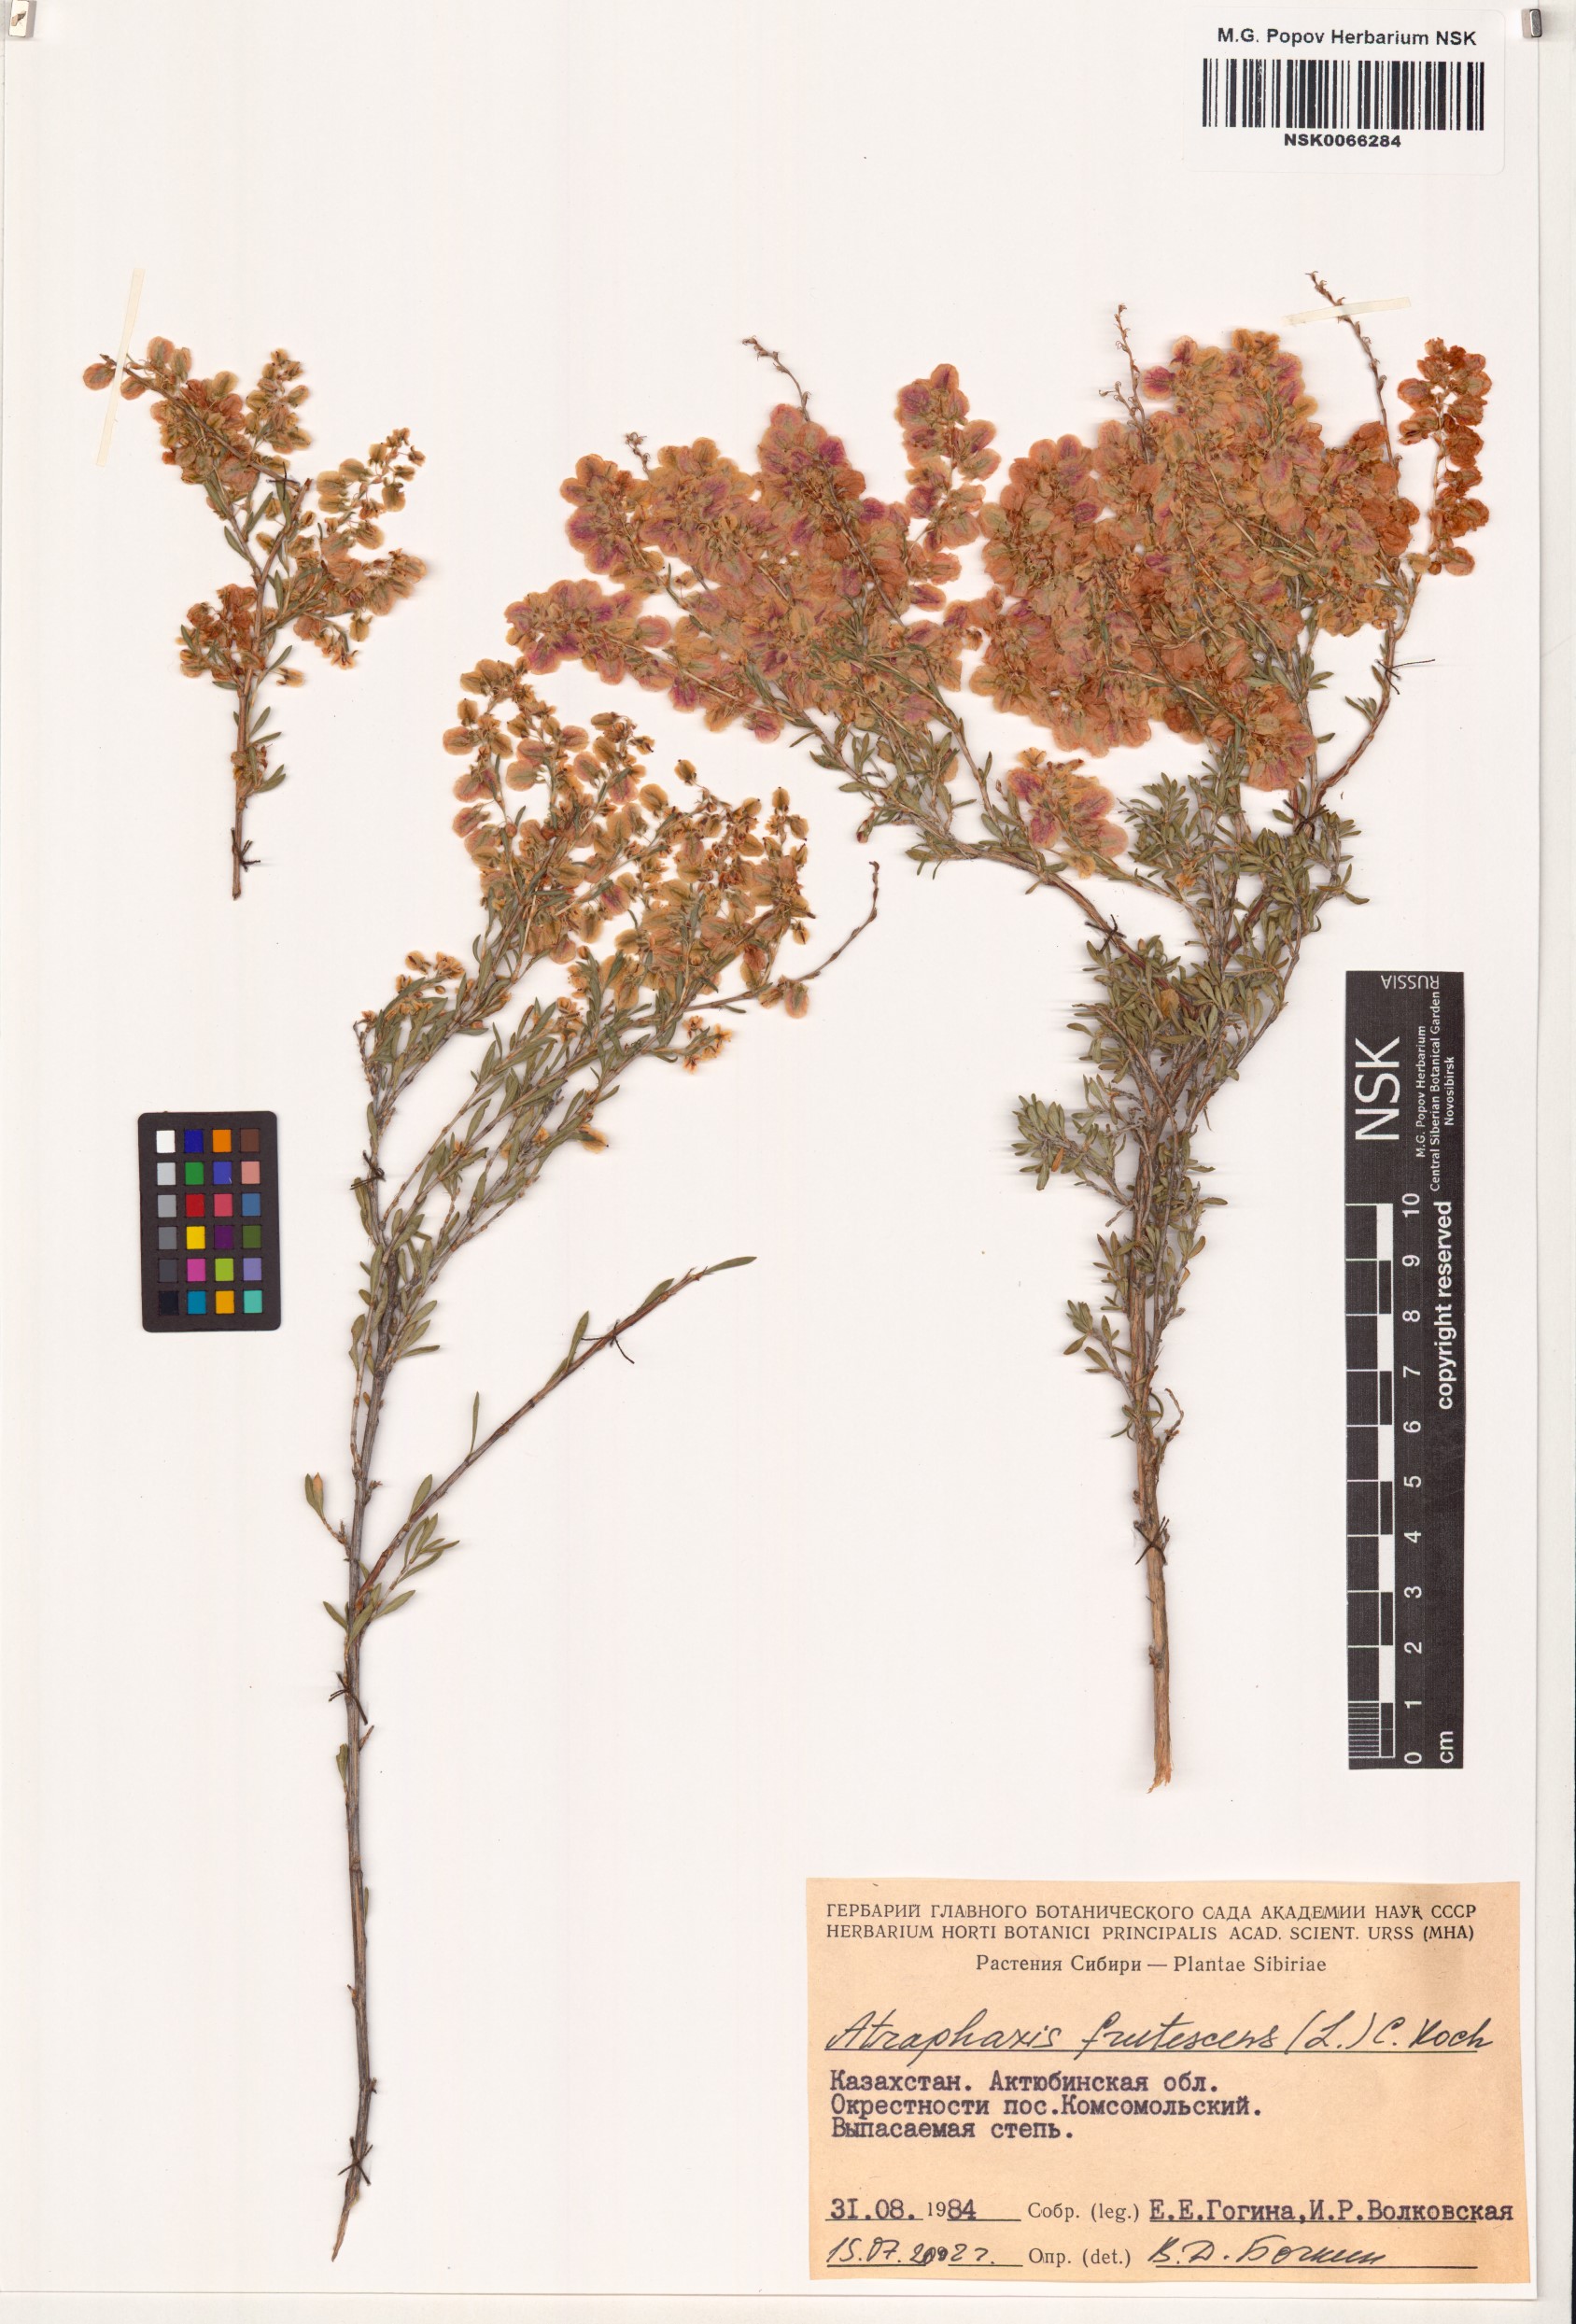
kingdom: Plantae
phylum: Tracheophyta
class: Magnoliopsida
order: Caryophyllales
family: Polygonaceae
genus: Atraphaxis
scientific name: Atraphaxis frutescens
